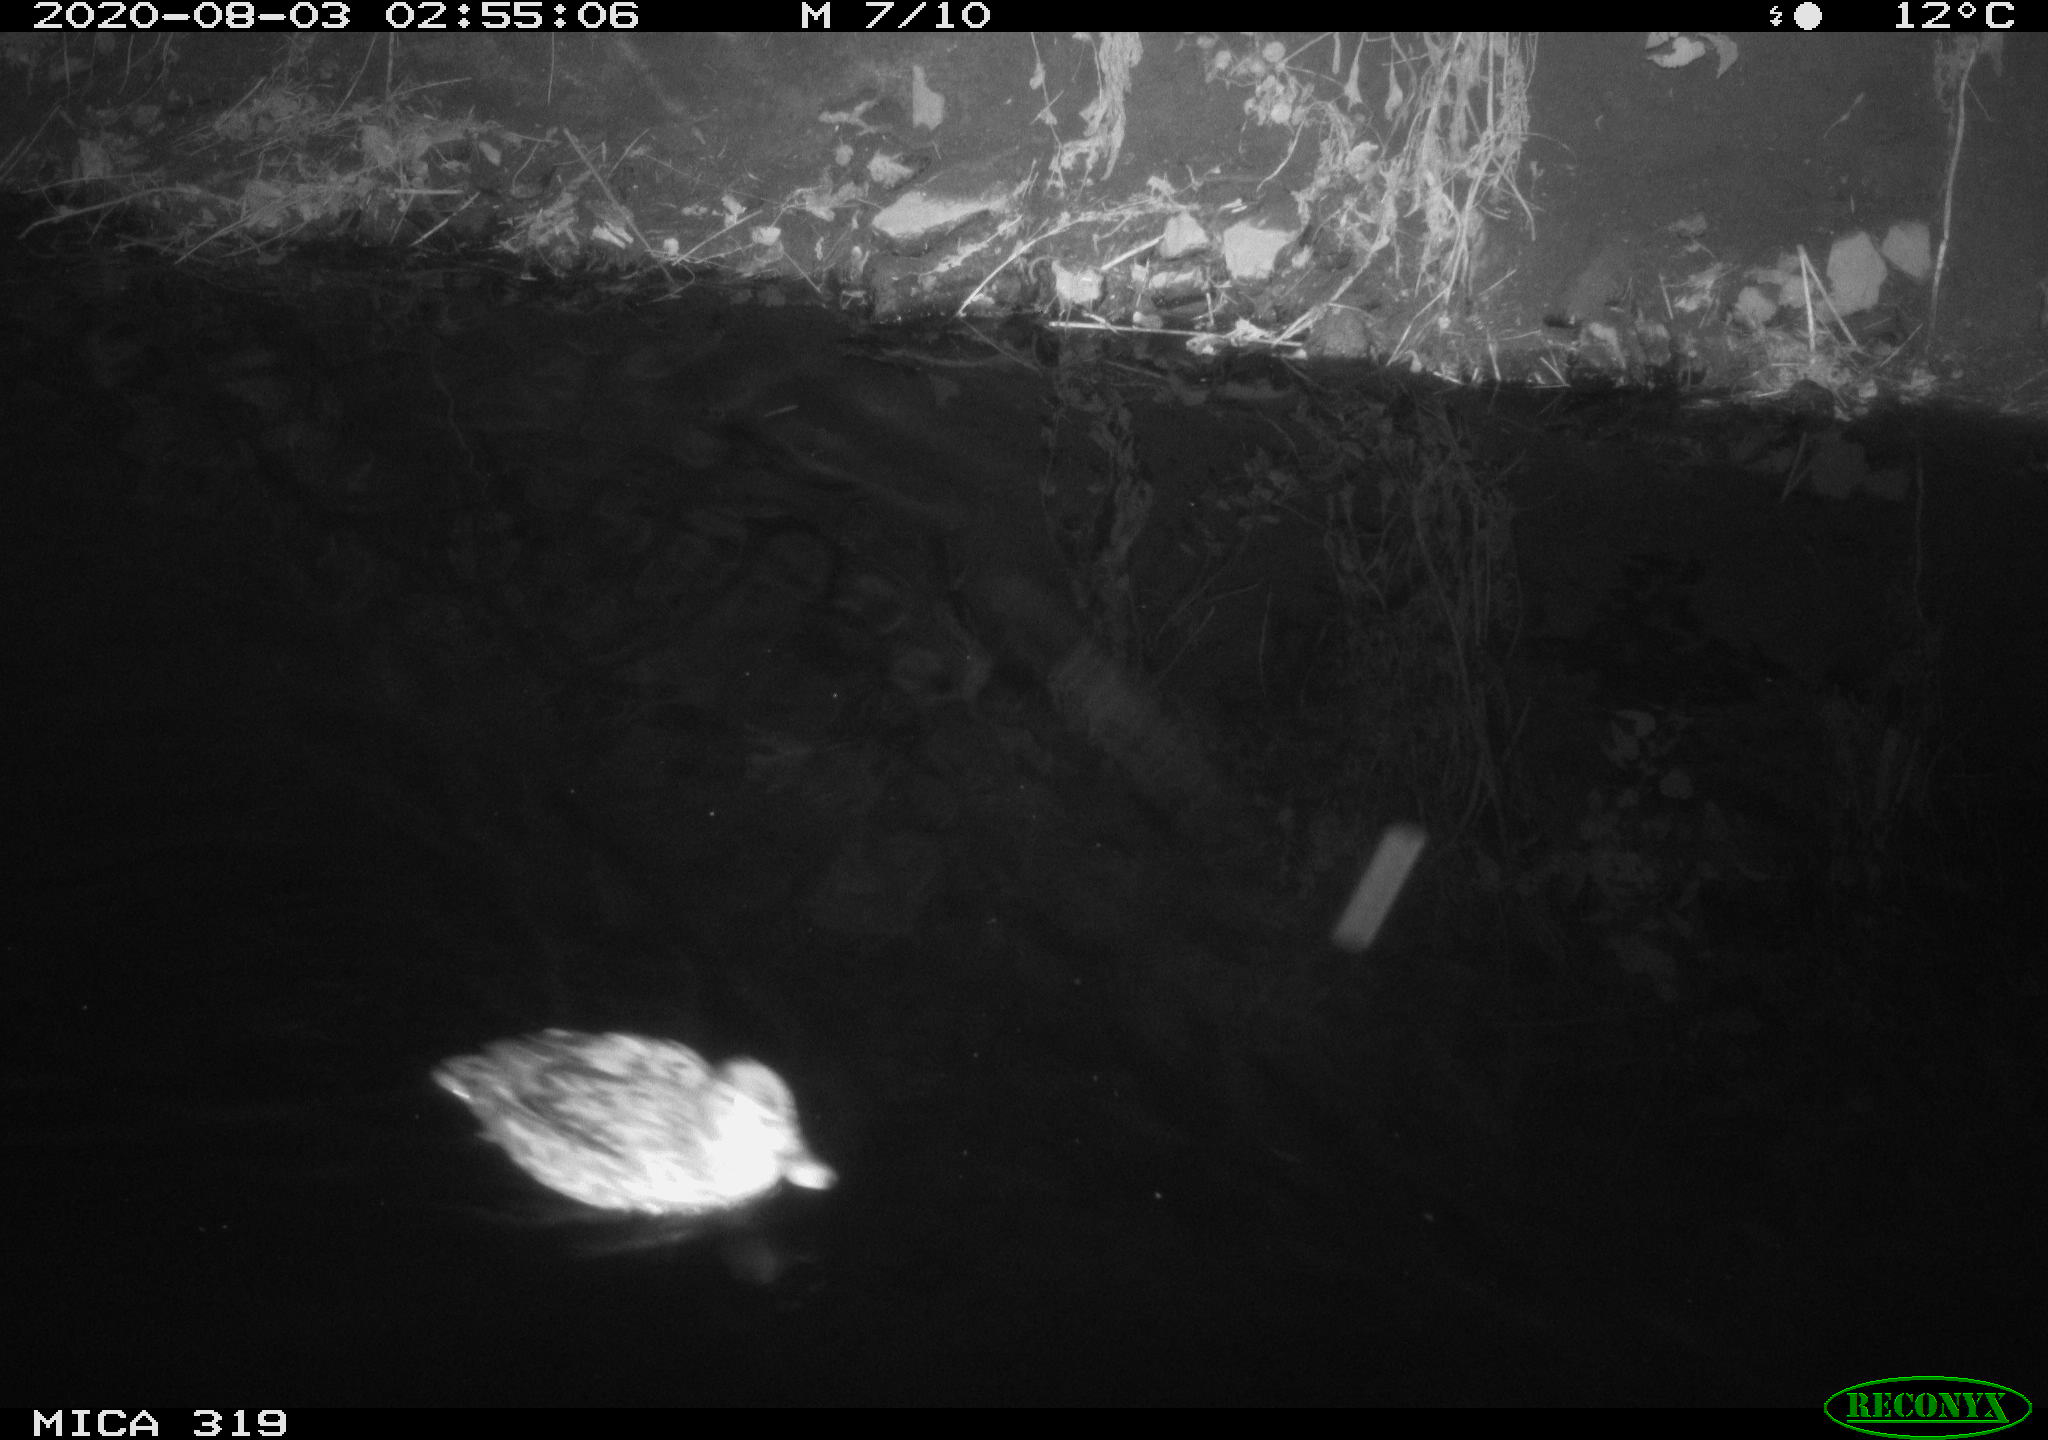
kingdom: Animalia
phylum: Chordata
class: Aves
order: Anseriformes
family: Anatidae
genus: Anas
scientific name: Anas platyrhynchos
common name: Mallard
